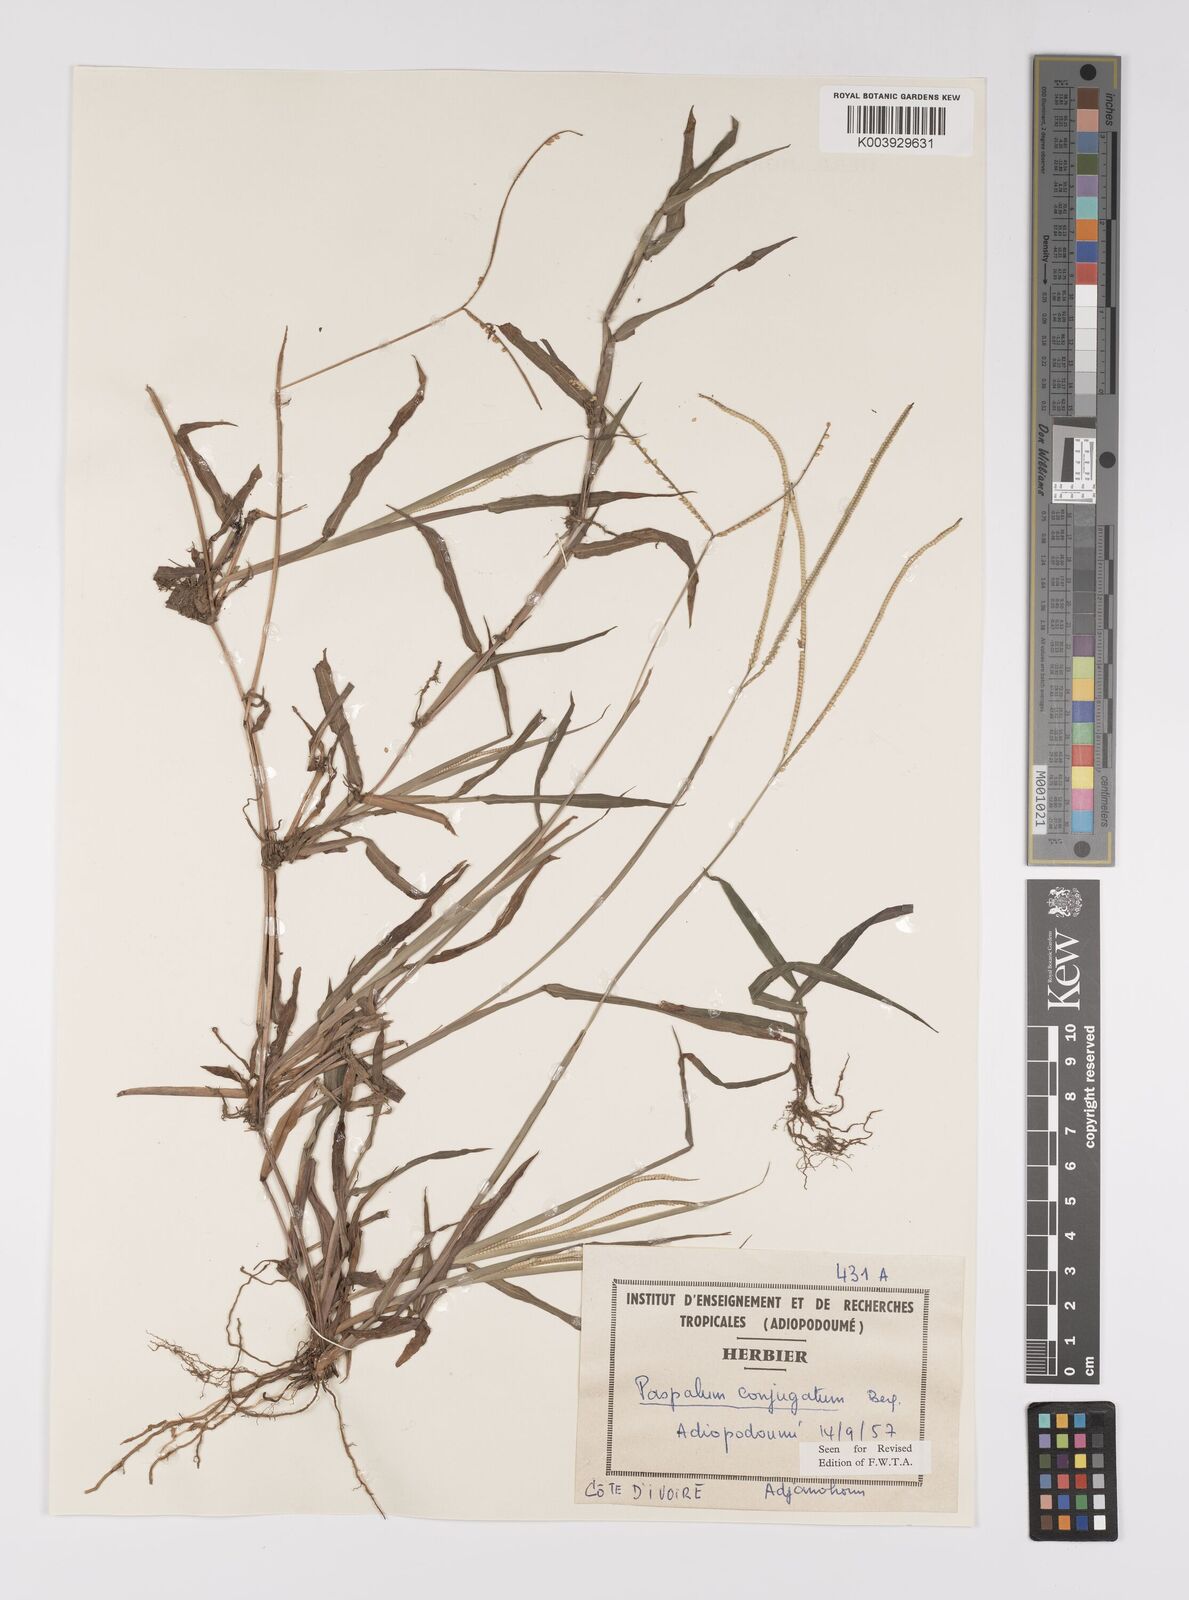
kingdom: Plantae
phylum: Tracheophyta
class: Liliopsida
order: Poales
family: Poaceae
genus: Paspalum
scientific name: Paspalum conjugatum
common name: Hilograss
